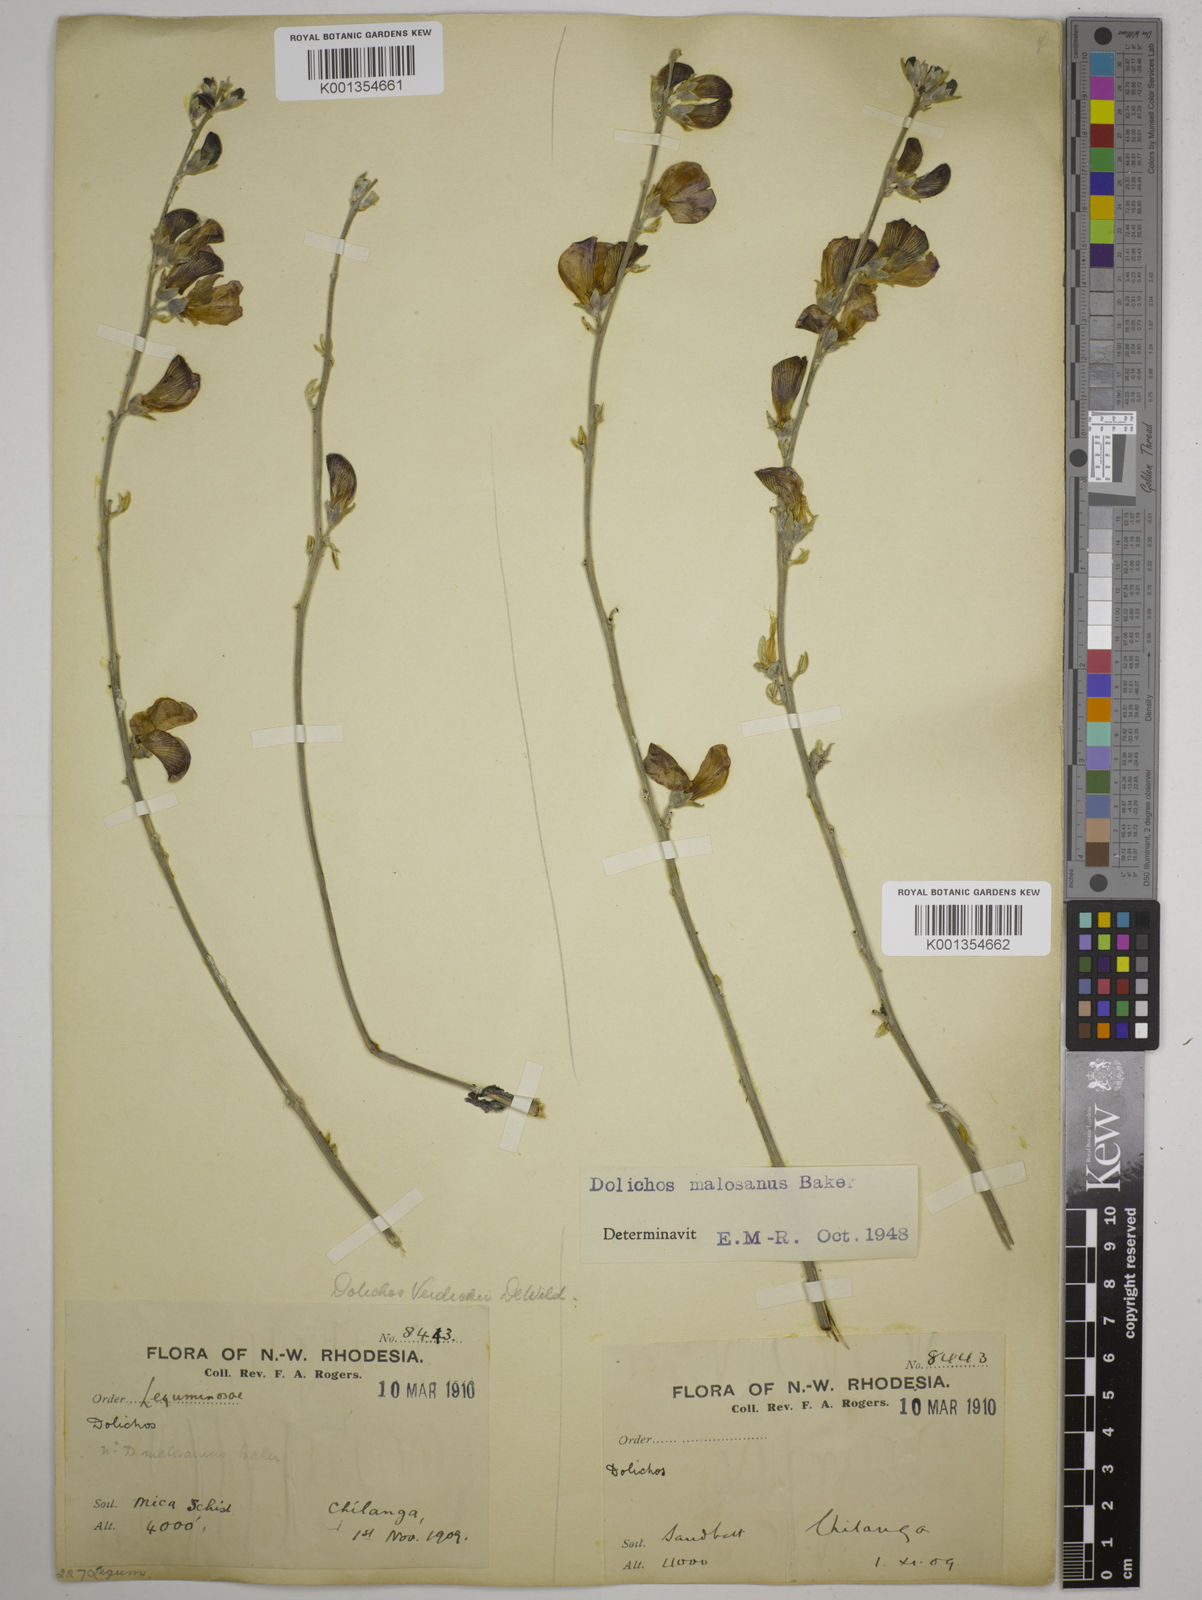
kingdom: Plantae
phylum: Tracheophyta
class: Magnoliopsida
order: Fabales
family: Fabaceae
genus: Dolichos
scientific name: Dolichos kilimandscharicus
